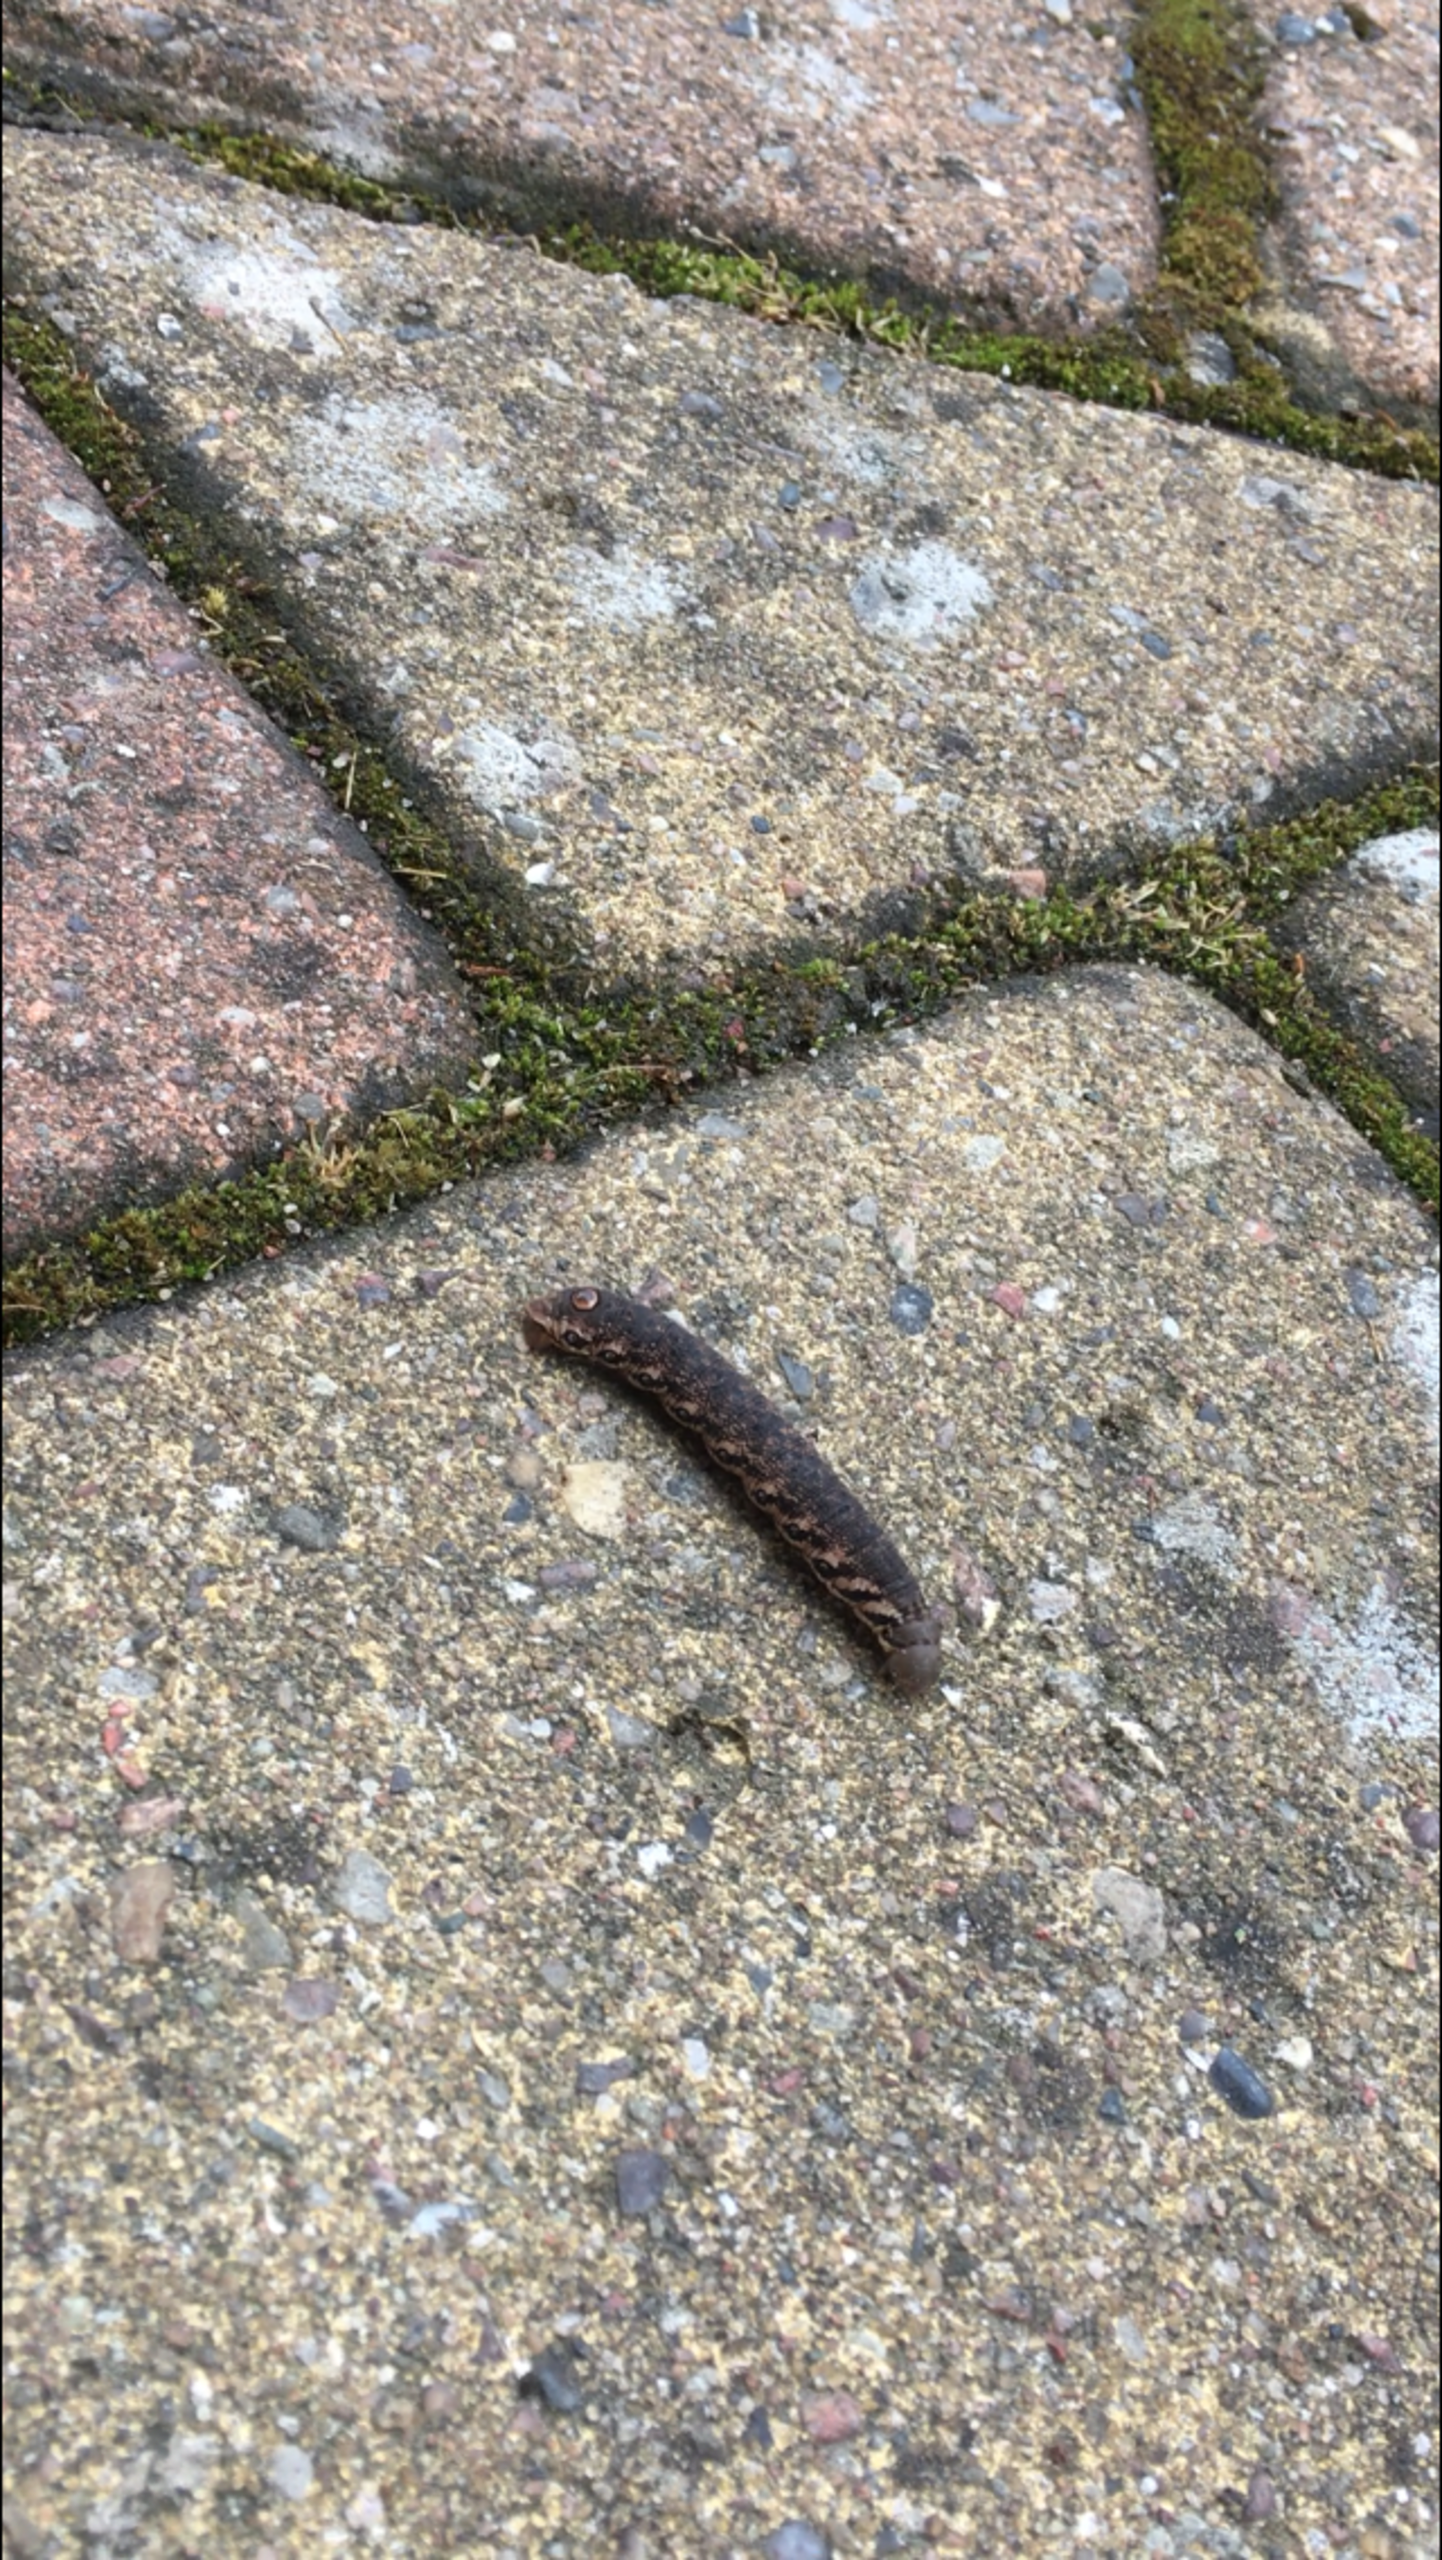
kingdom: Animalia
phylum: Arthropoda
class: Insecta
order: Lepidoptera
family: Sphingidae
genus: Proserpinus
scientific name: Proserpinus proserpina
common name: Natlyssværmer
